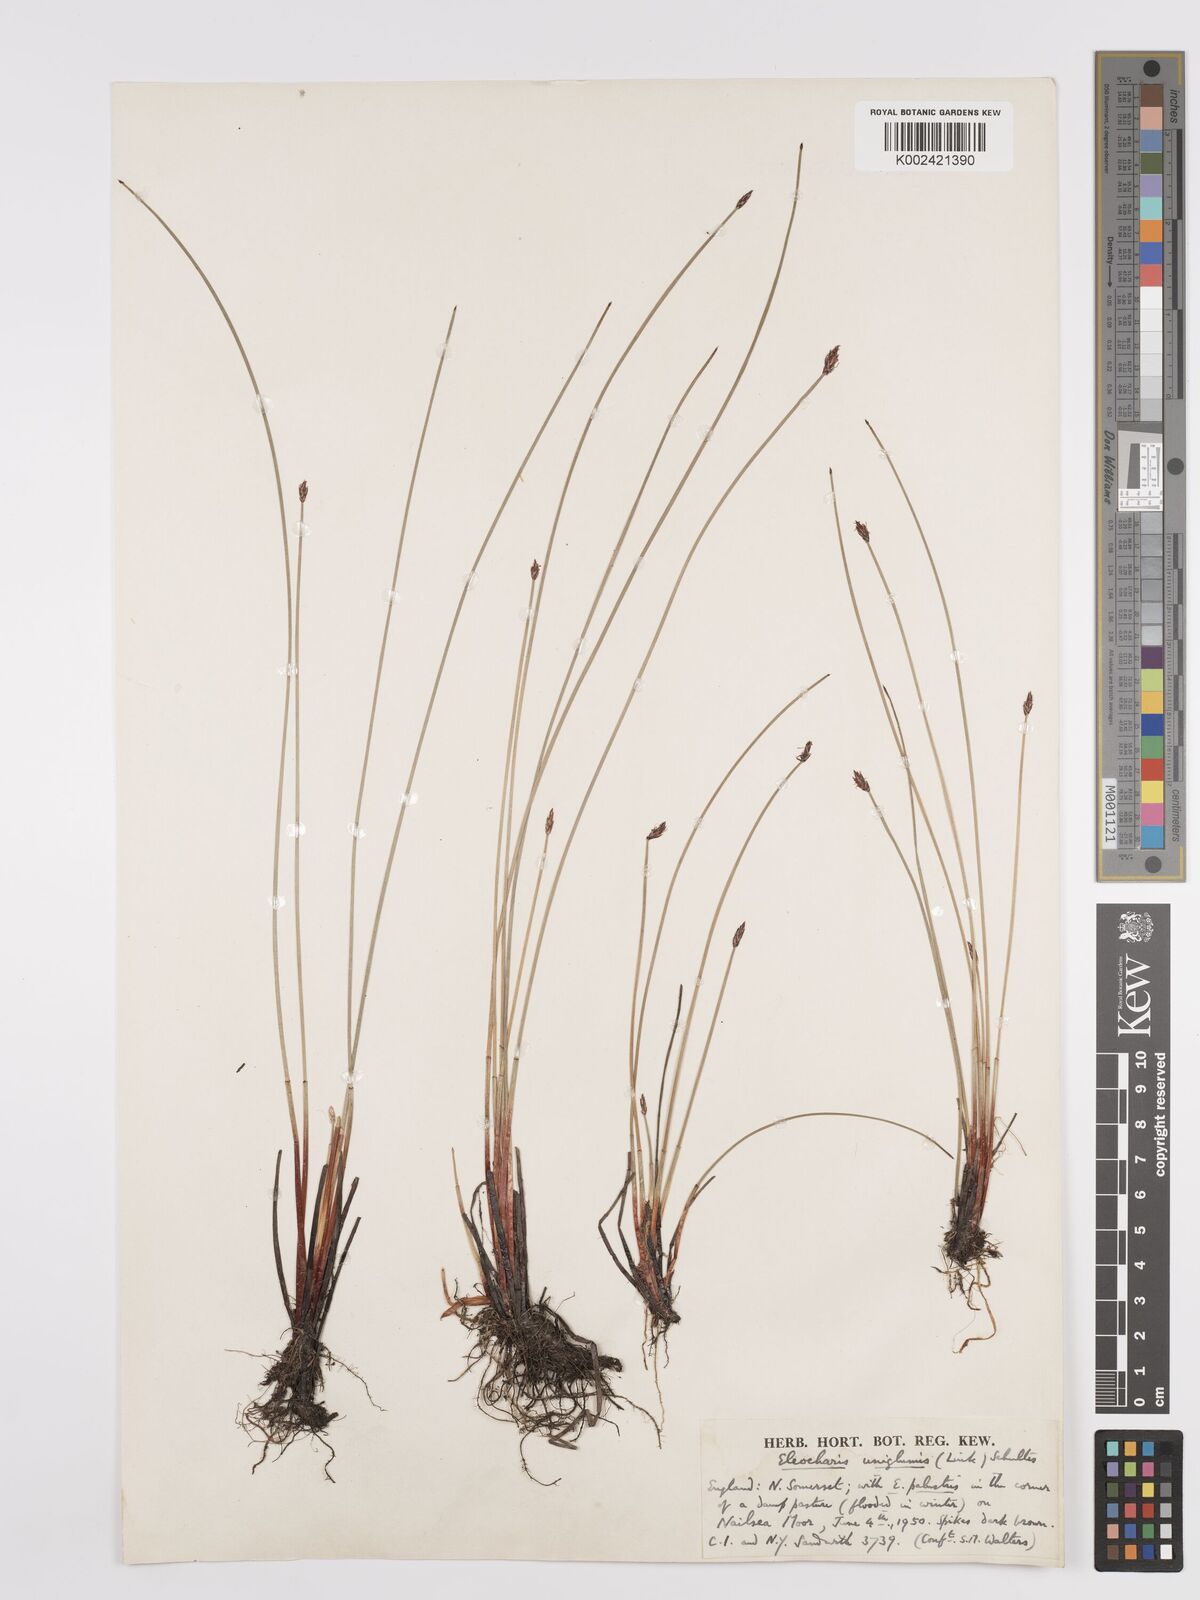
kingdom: Plantae
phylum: Tracheophyta
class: Liliopsida
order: Poales
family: Cyperaceae
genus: Eleocharis
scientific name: Eleocharis uniglumis
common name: Slender spike-rush
